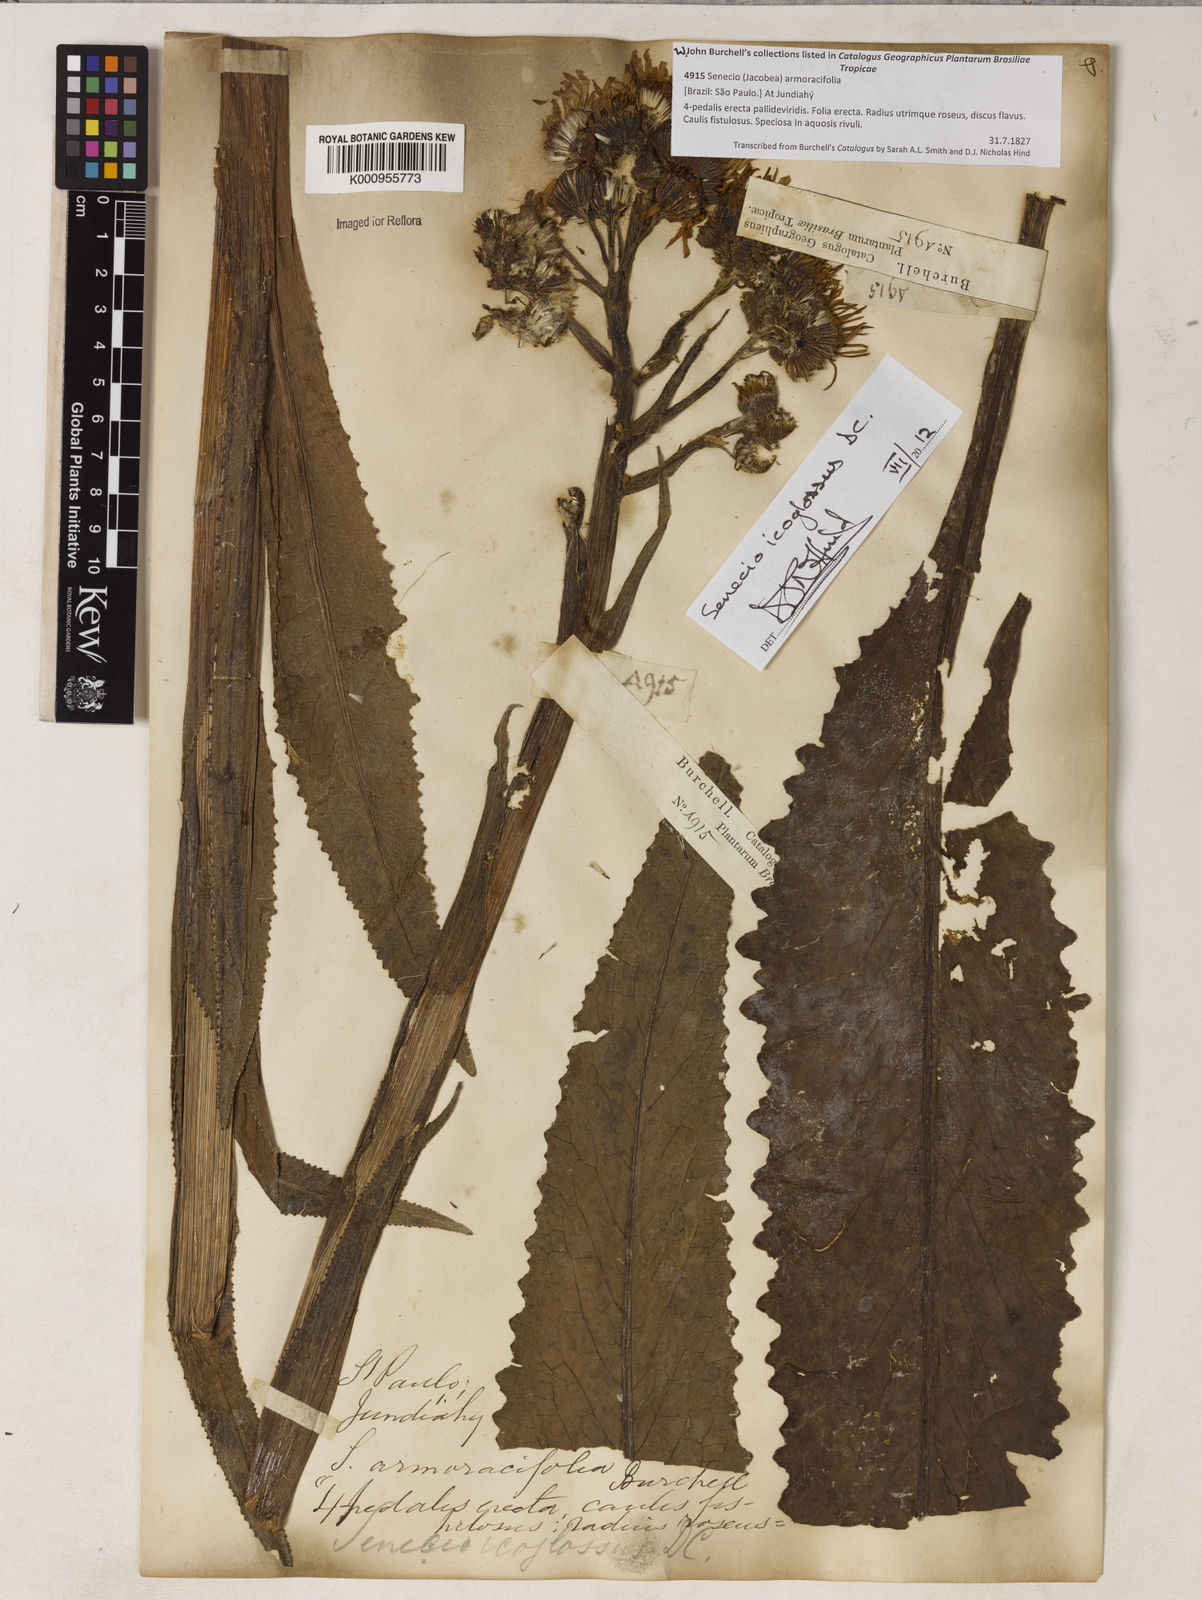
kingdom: Plantae
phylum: Tracheophyta
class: Magnoliopsida
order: Asterales
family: Asteraceae
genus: Senecio
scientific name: Senecio icoglossus
